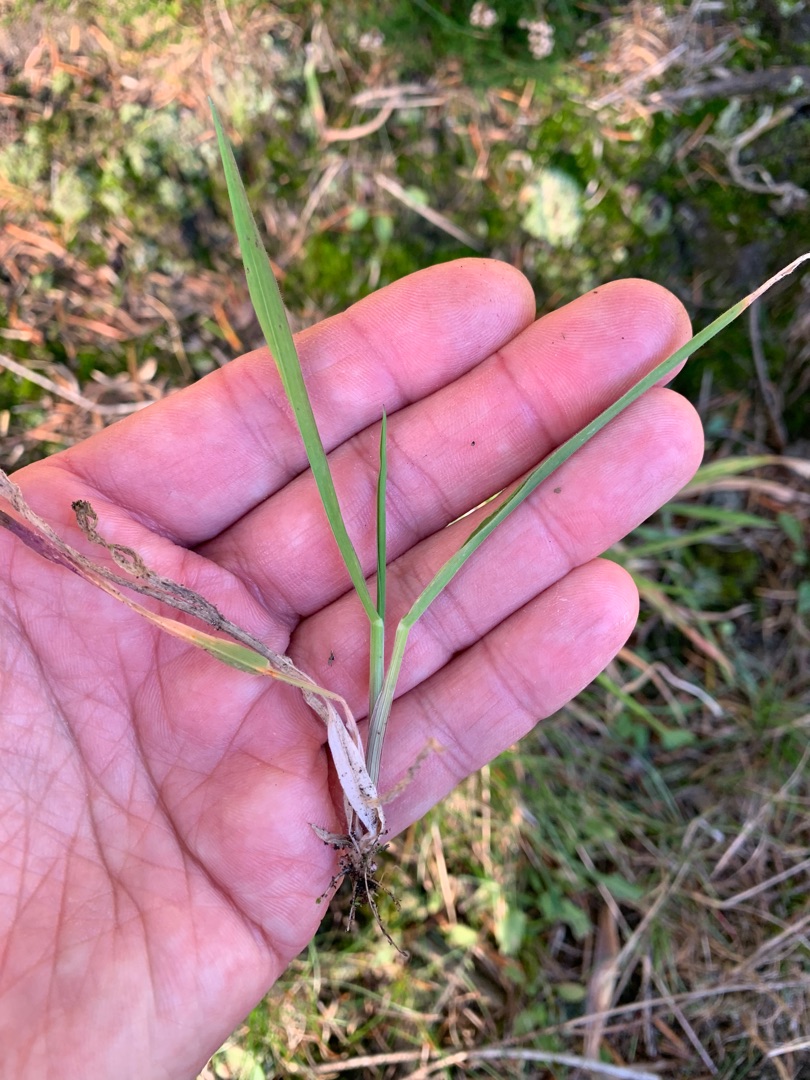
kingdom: Plantae
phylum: Tracheophyta
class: Liliopsida
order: Poales
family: Poaceae
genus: Holcus
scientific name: Holcus lanatus
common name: Fløjlsgræs
